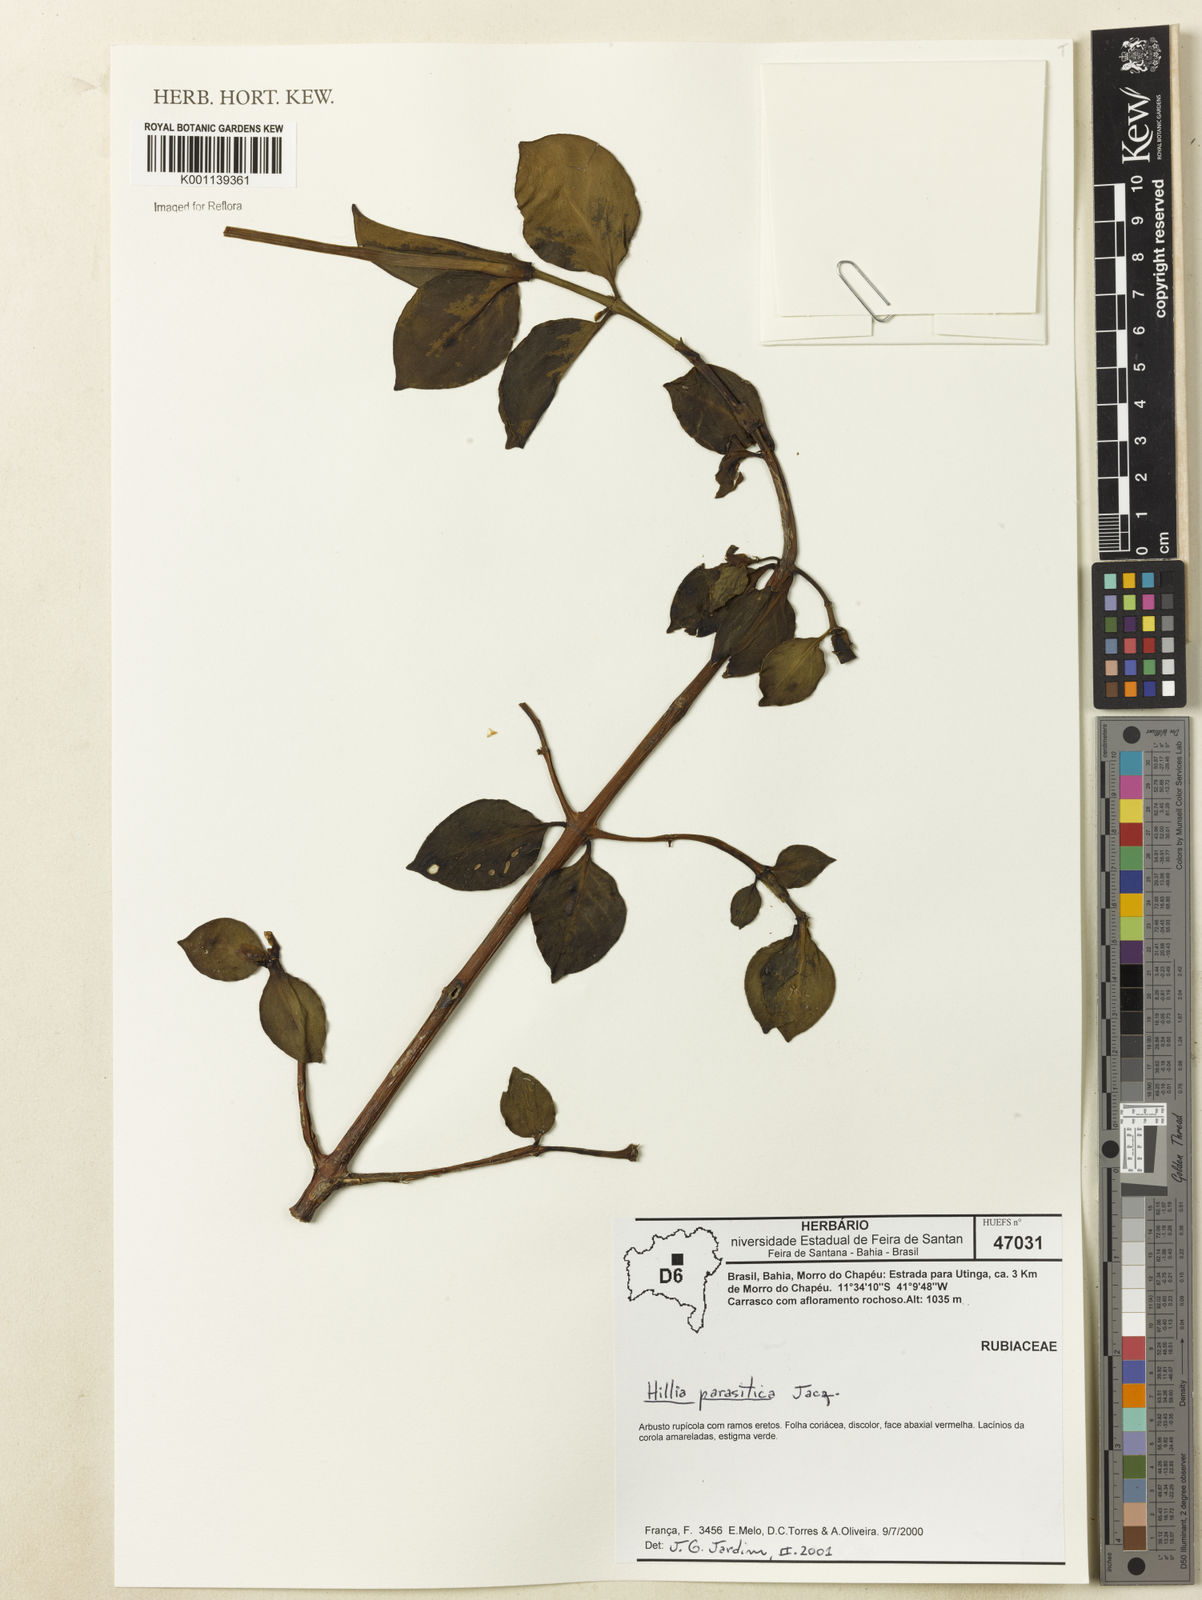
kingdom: Plantae
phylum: Tracheophyta
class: Magnoliopsida
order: Gentianales
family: Rubiaceae
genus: Hillia
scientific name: Hillia parasitica
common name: Morning star
